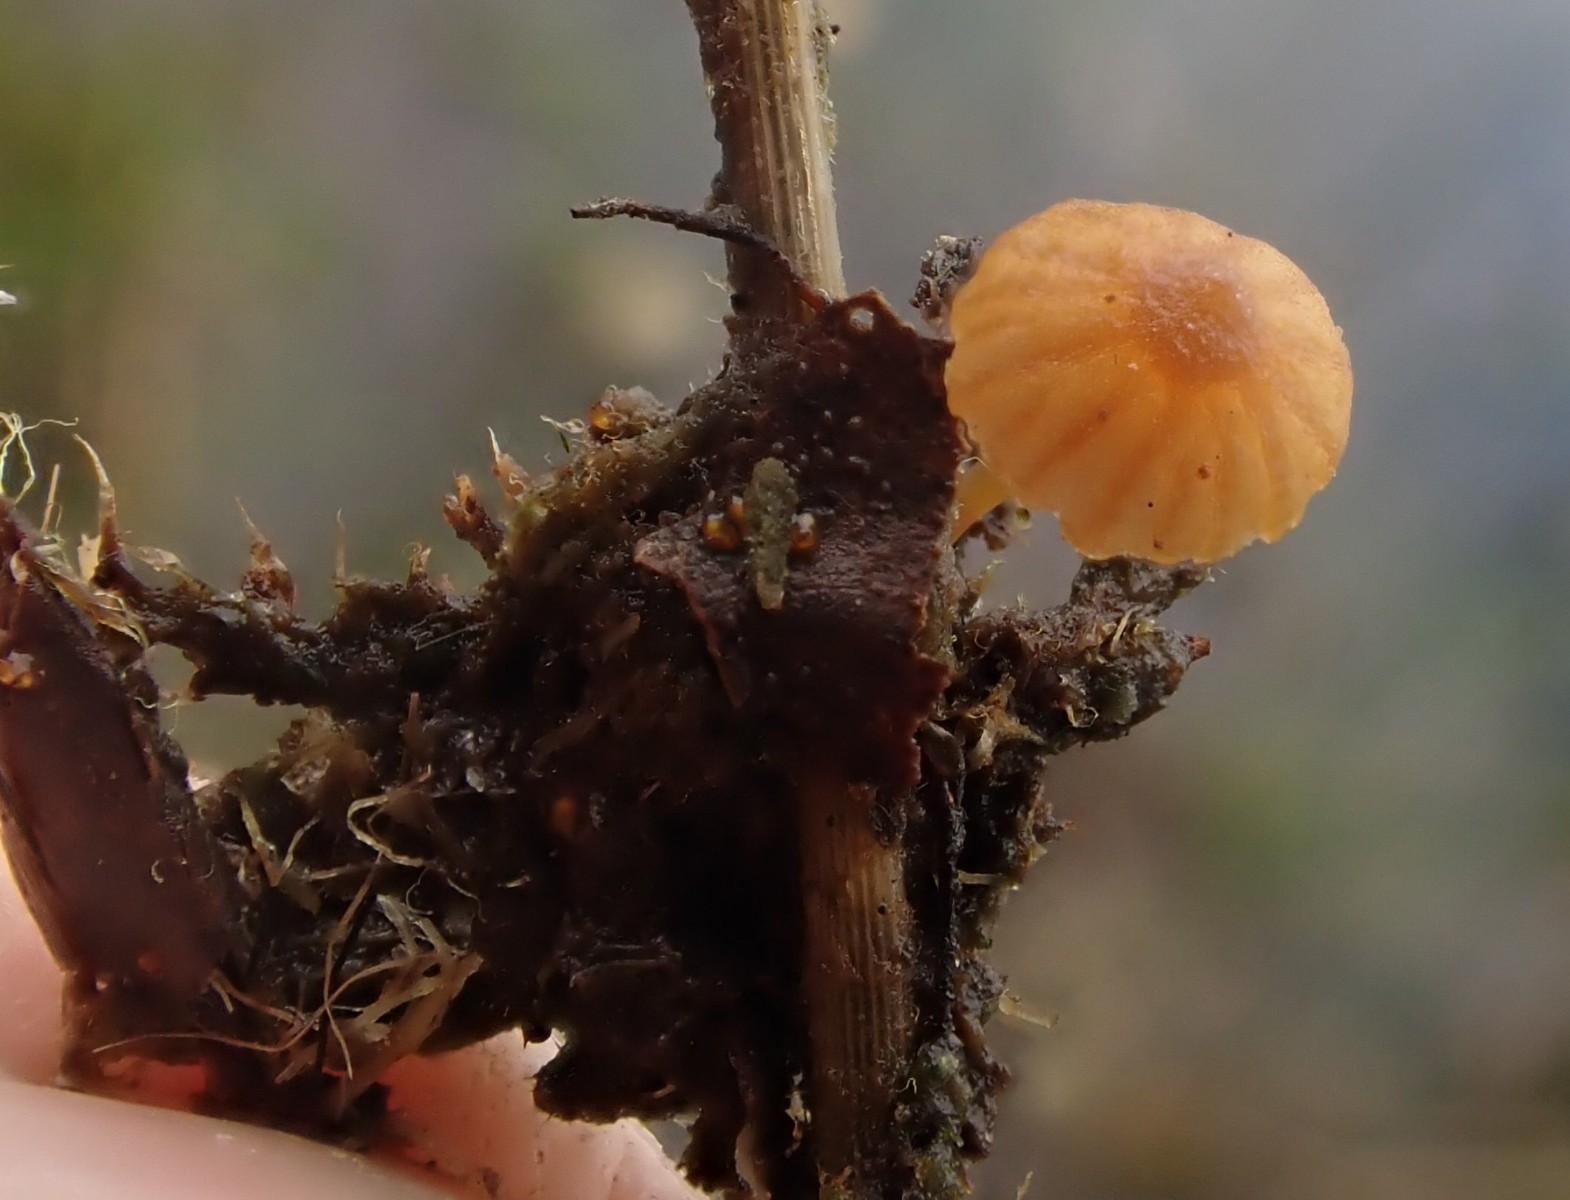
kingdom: Fungi
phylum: Basidiomycota
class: Agaricomycetes
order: Agaricales
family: Hymenogastraceae
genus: Galerina
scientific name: Galerina jaapii
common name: hvidbæltet hjelmhat
